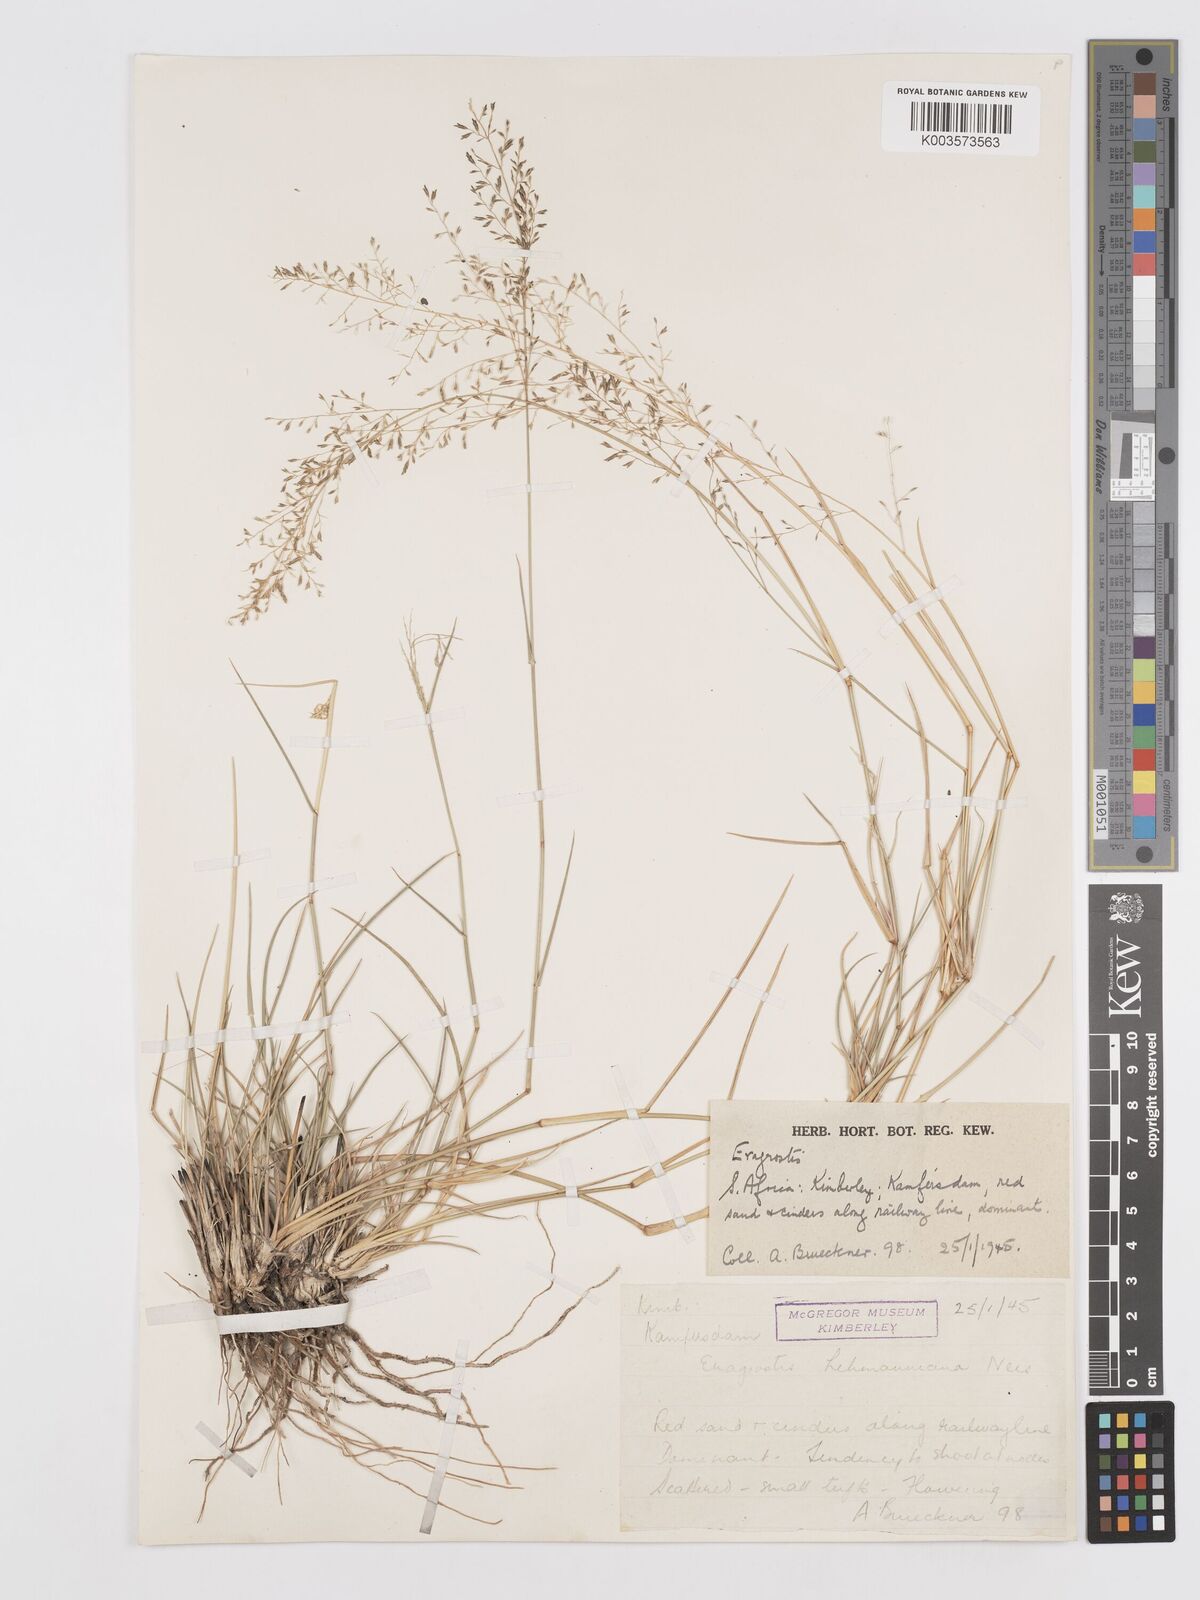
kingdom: Plantae
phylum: Tracheophyta
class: Liliopsida
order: Poales
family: Poaceae
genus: Eragrostis
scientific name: Eragrostis lehmanniana
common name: Lehmann lovegrass
